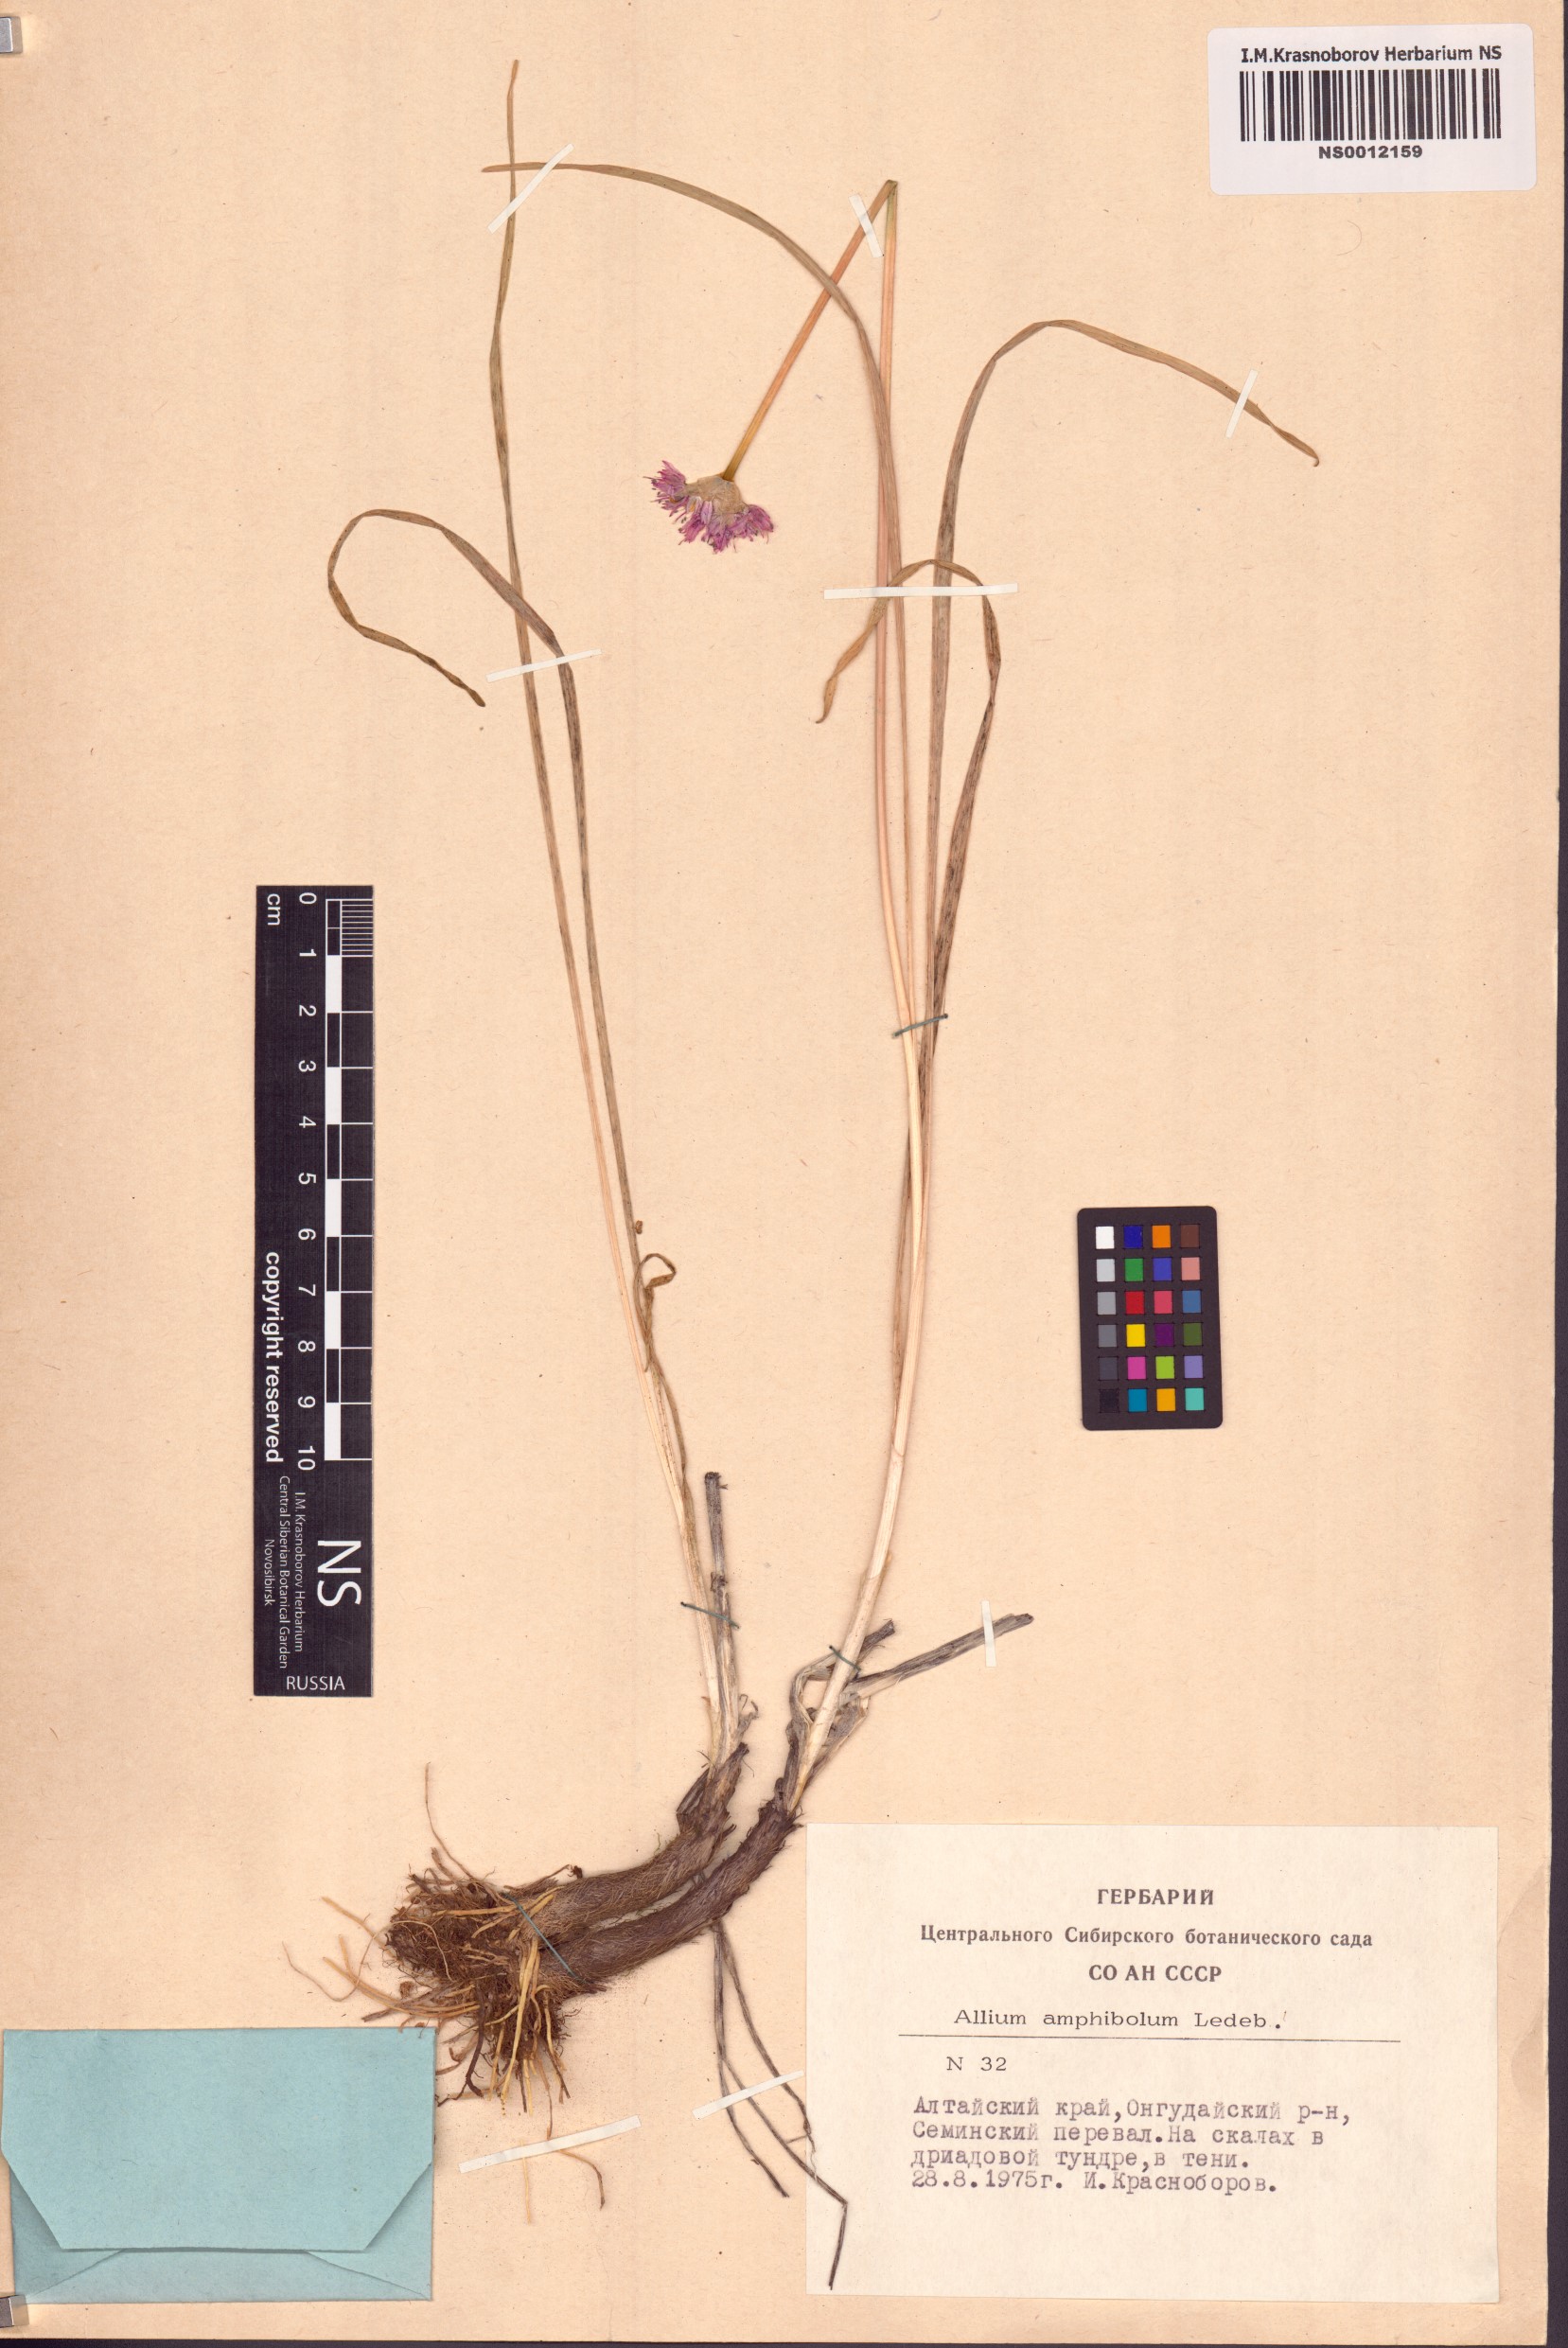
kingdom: Plantae
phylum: Tracheophyta
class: Liliopsida
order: Asparagales
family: Amaryllidaceae
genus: Allium
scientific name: Allium amphibolum
